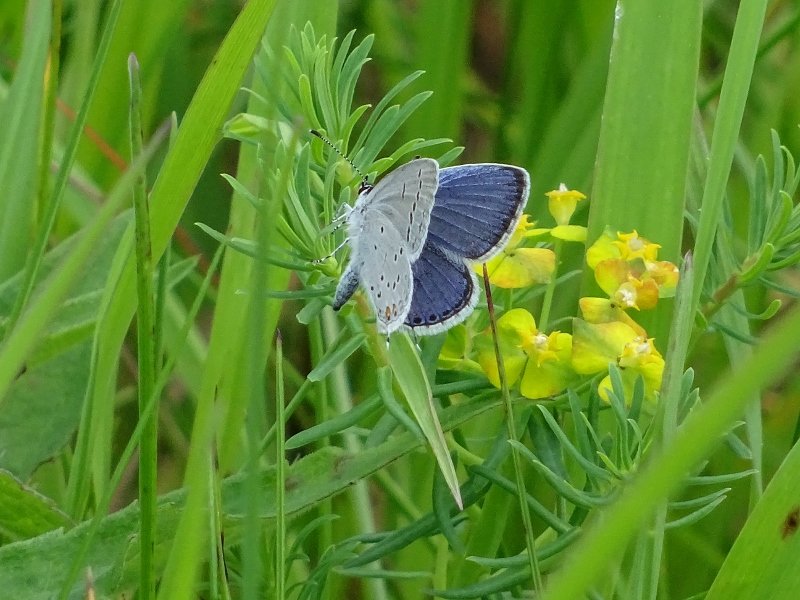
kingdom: Animalia
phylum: Arthropoda
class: Insecta
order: Lepidoptera
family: Lycaenidae
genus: Elkalyce
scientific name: Elkalyce comyntas
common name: Eastern Tailed-Blue
